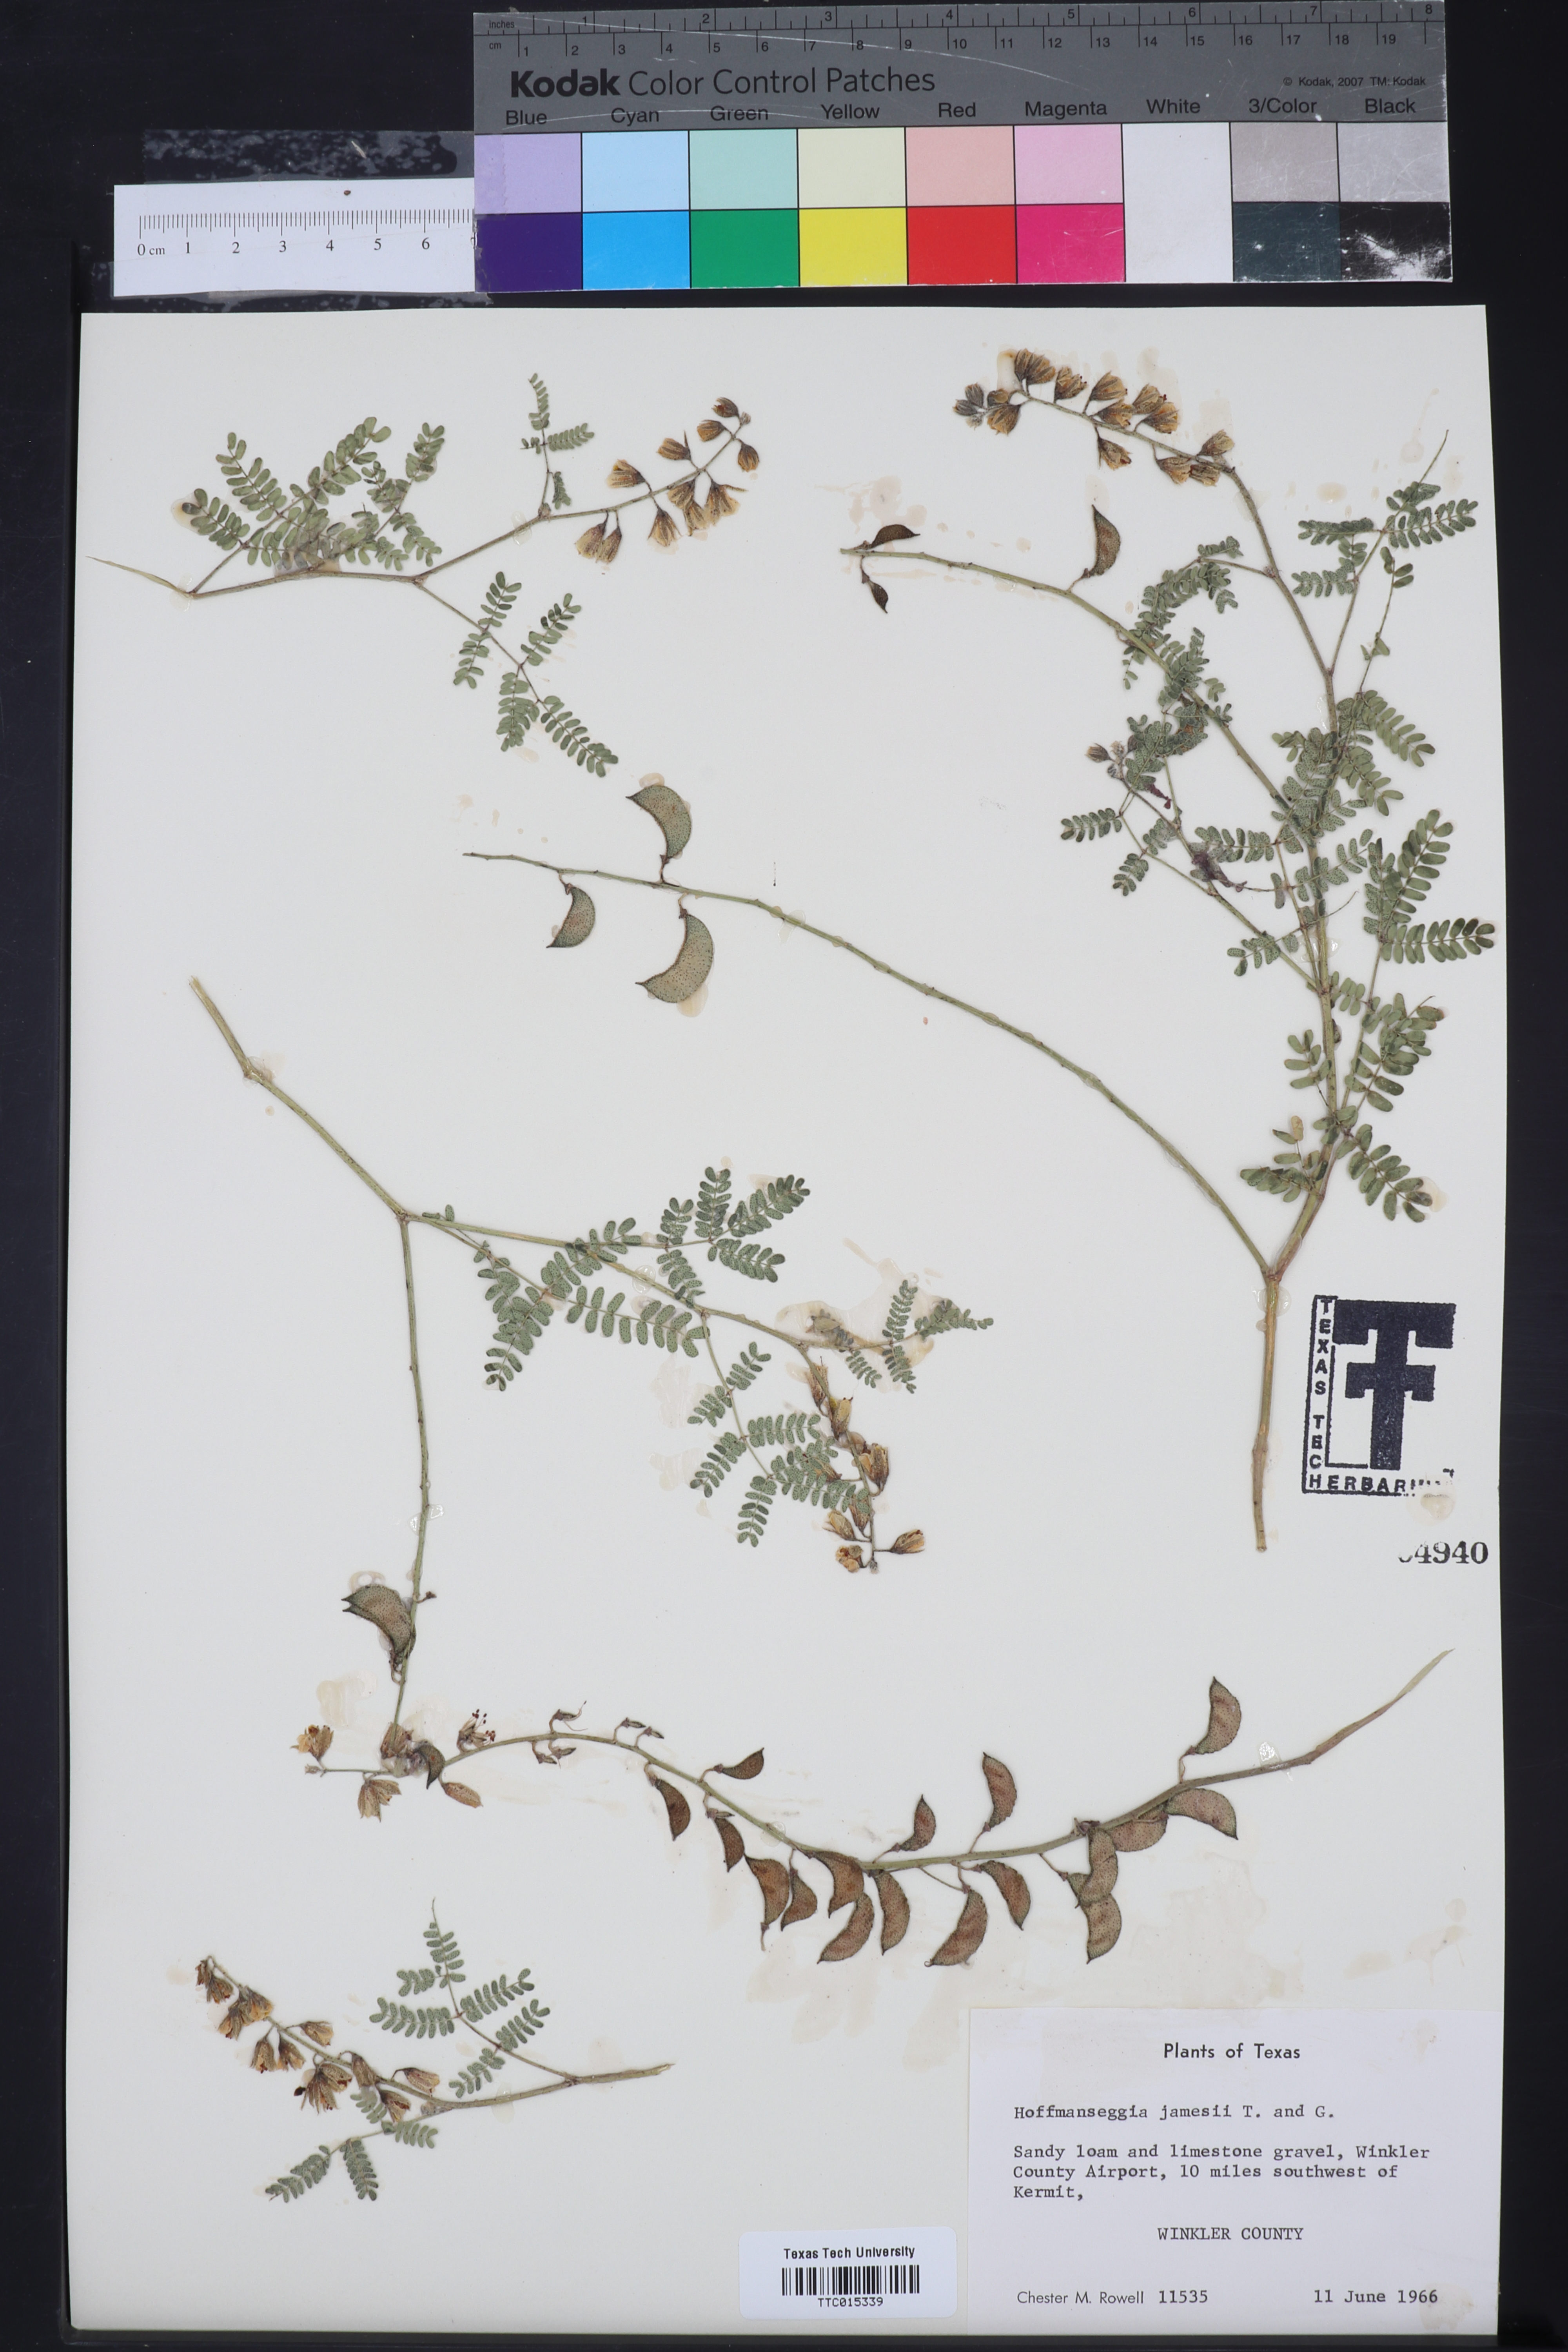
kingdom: Plantae
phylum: Tracheophyta
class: Magnoliopsida
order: Fabales
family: Fabaceae
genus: Pomaria
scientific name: Pomaria jamesii
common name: James' caesalpinia
